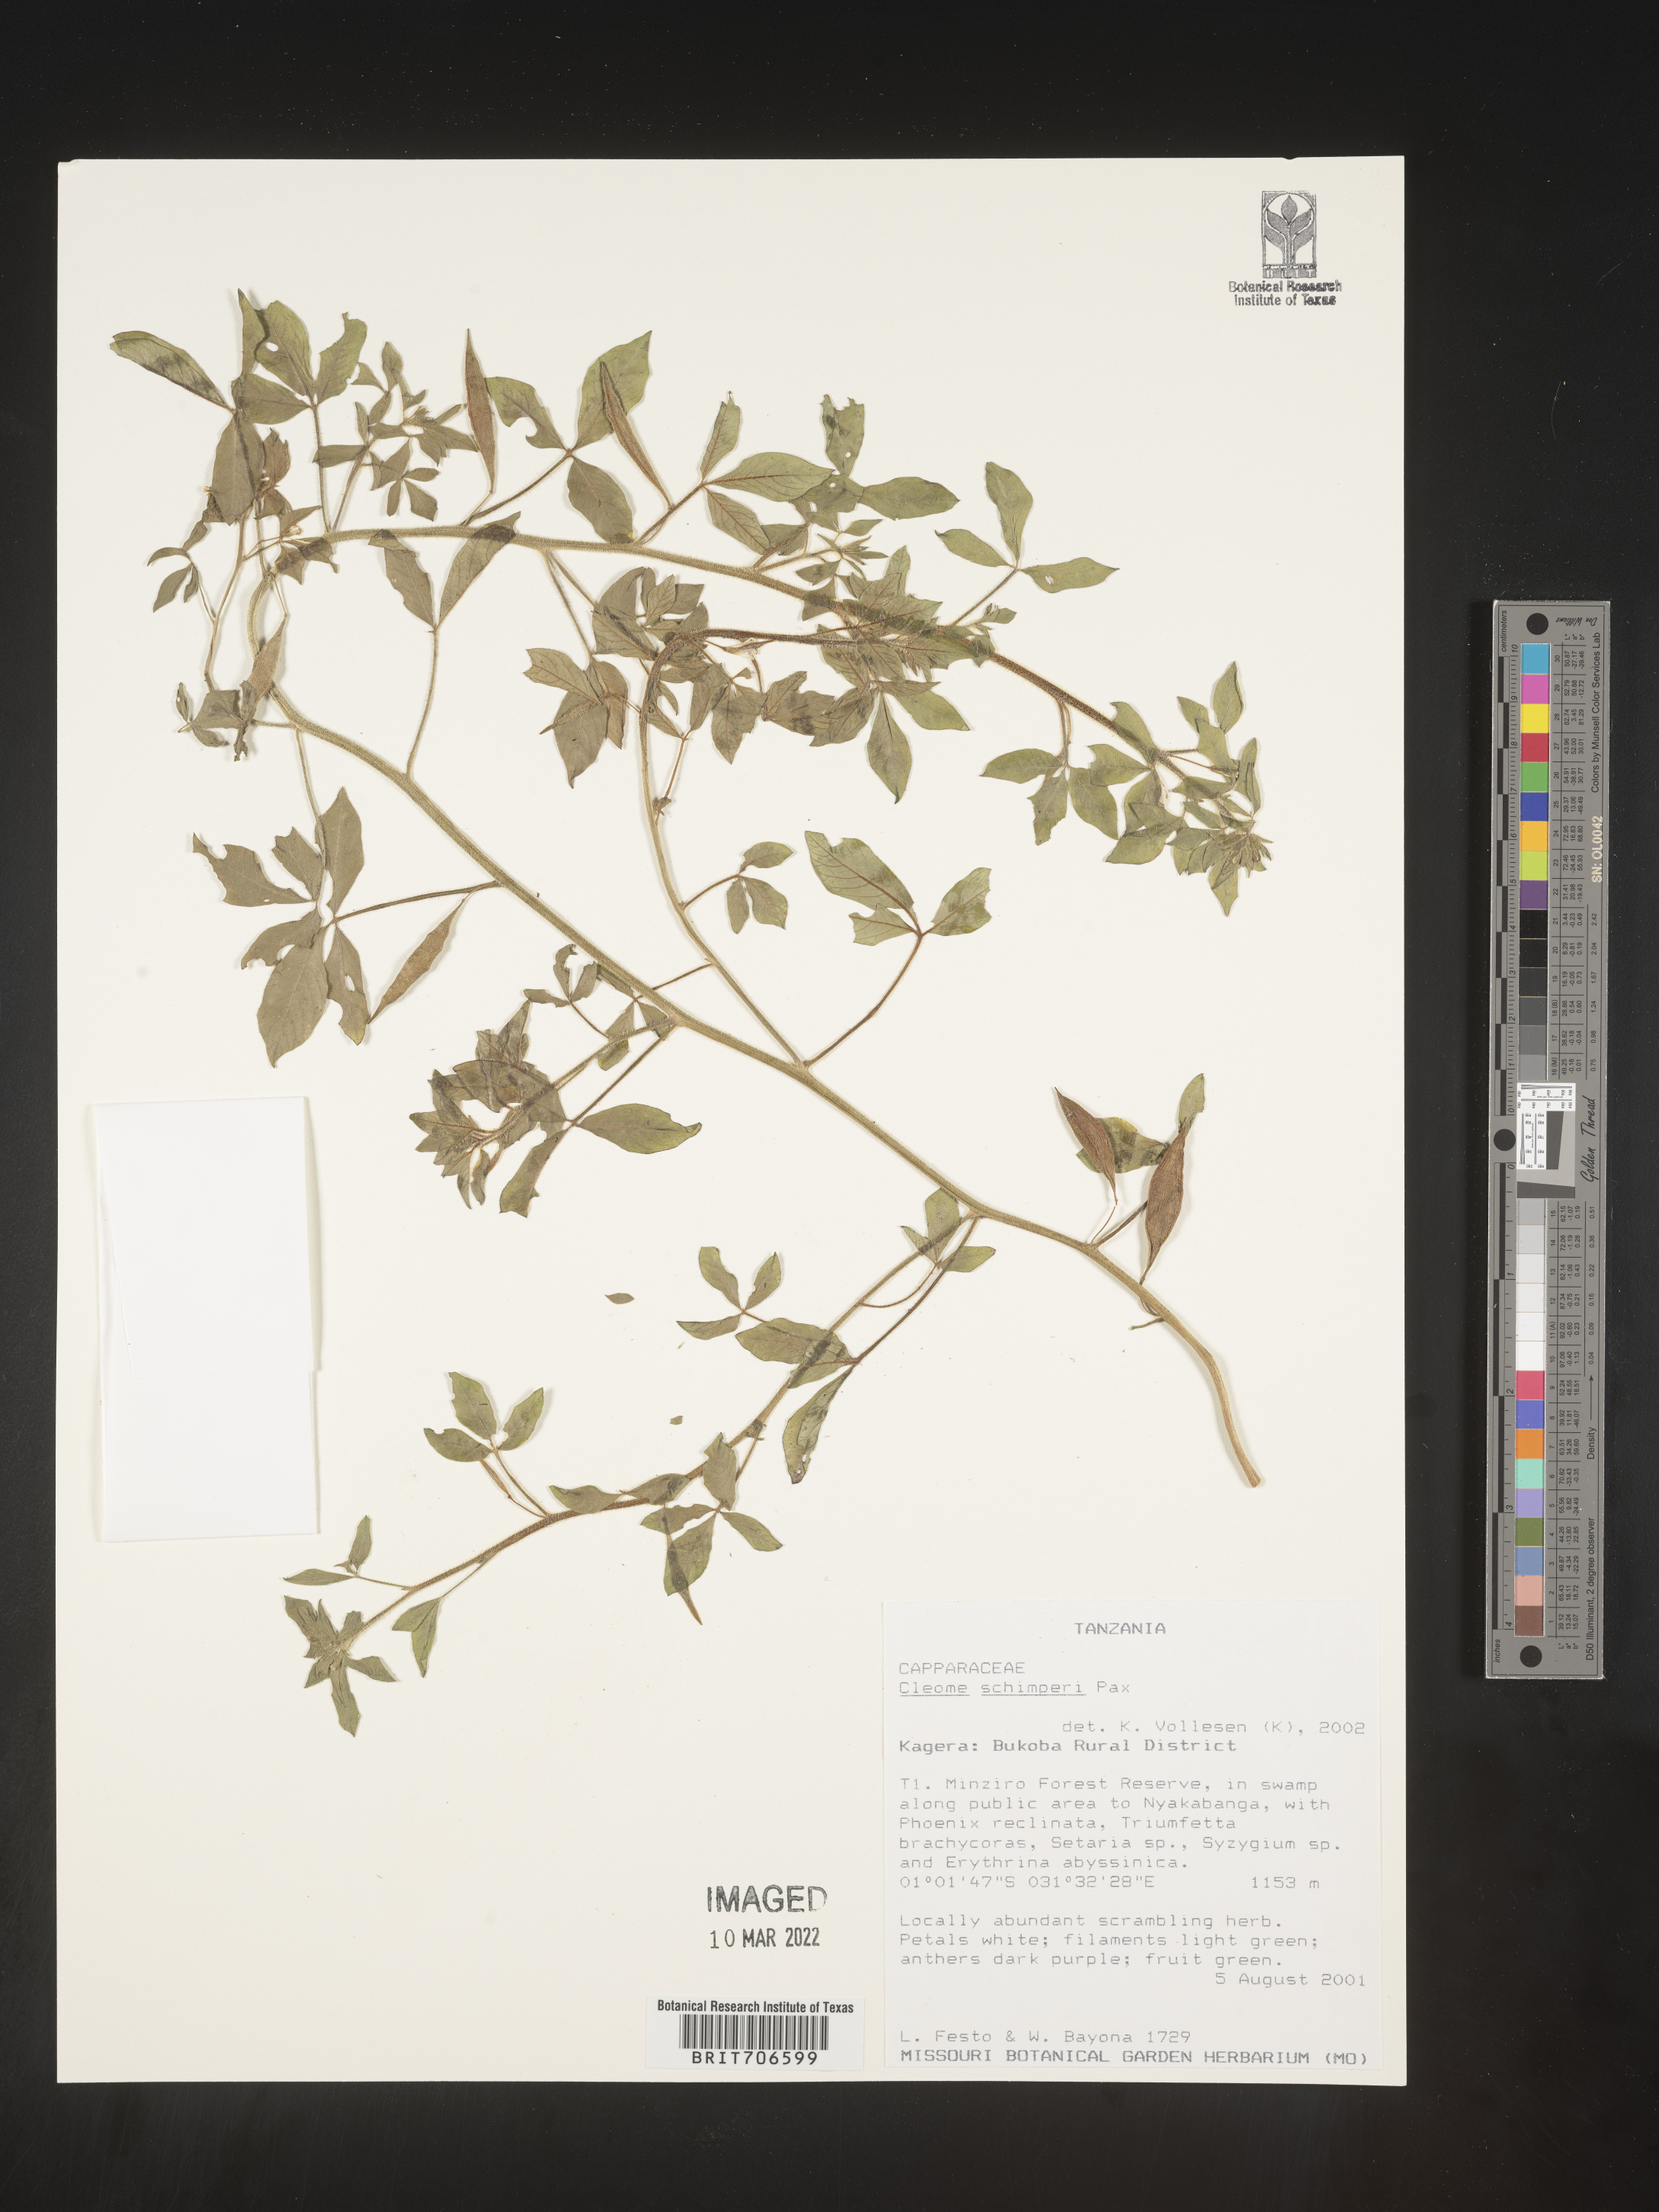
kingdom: Plantae
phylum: Tracheophyta
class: Magnoliopsida
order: Brassicales
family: Cleomaceae
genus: Cleome
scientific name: Cleome
